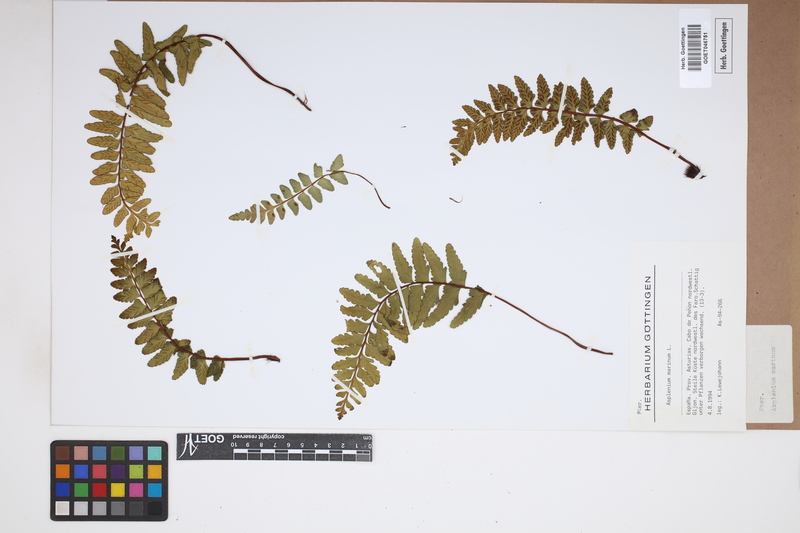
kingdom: Plantae
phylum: Tracheophyta
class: Polypodiopsida
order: Polypodiales
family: Aspleniaceae
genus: Asplenium
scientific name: Asplenium marinum
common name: Sea spleenwort
